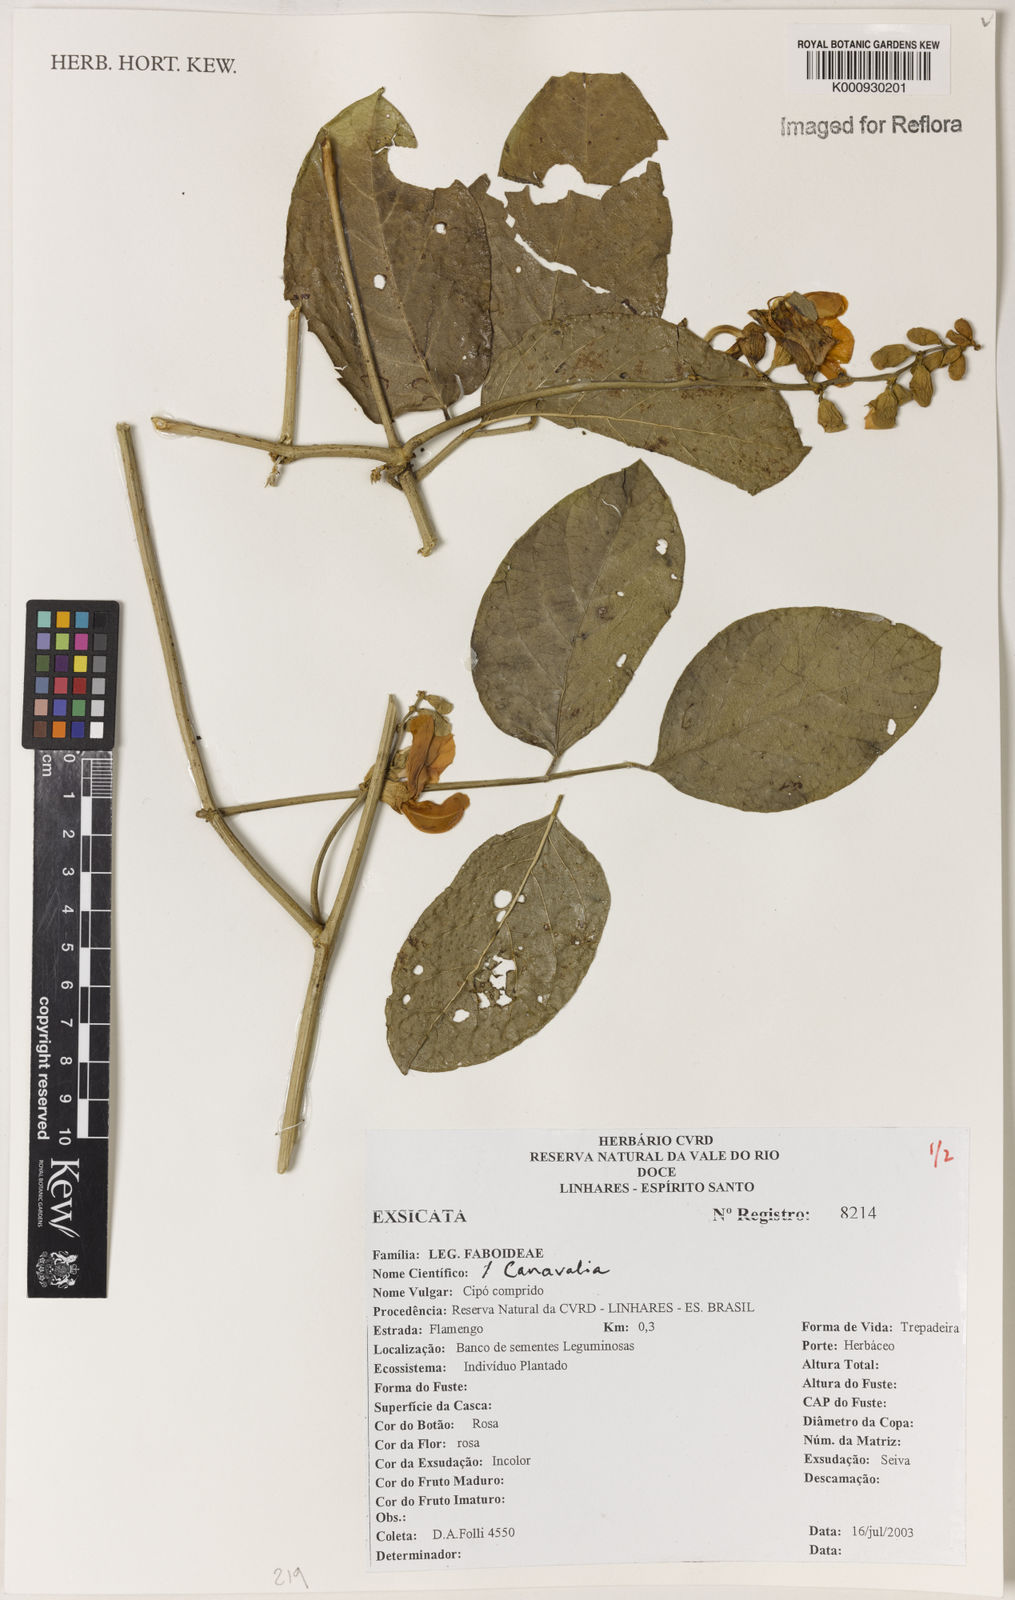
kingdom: Plantae
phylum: Tracheophyta
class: Magnoliopsida
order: Fabales
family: Fabaceae
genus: Canavalia
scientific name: Canavalia
